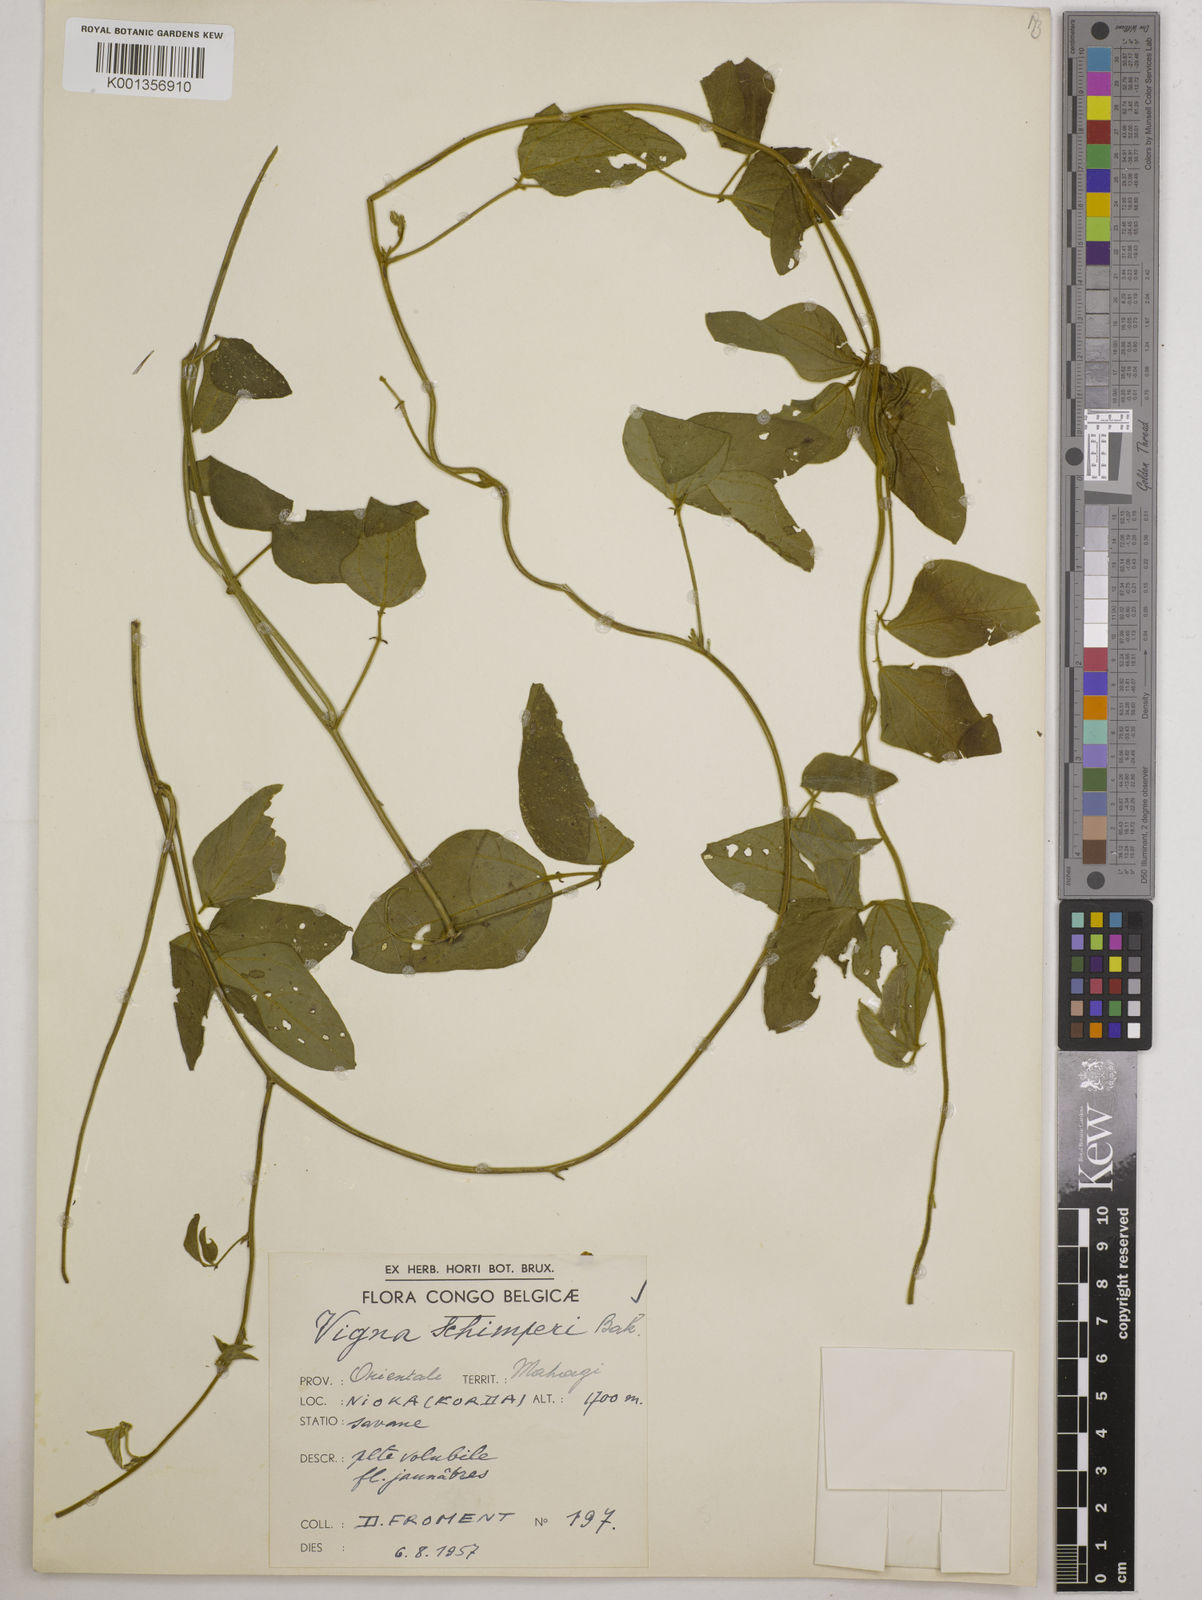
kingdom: Plantae
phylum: Tracheophyta
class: Magnoliopsida
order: Fabales
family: Fabaceae
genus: Vigna
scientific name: Vigna schimperi
